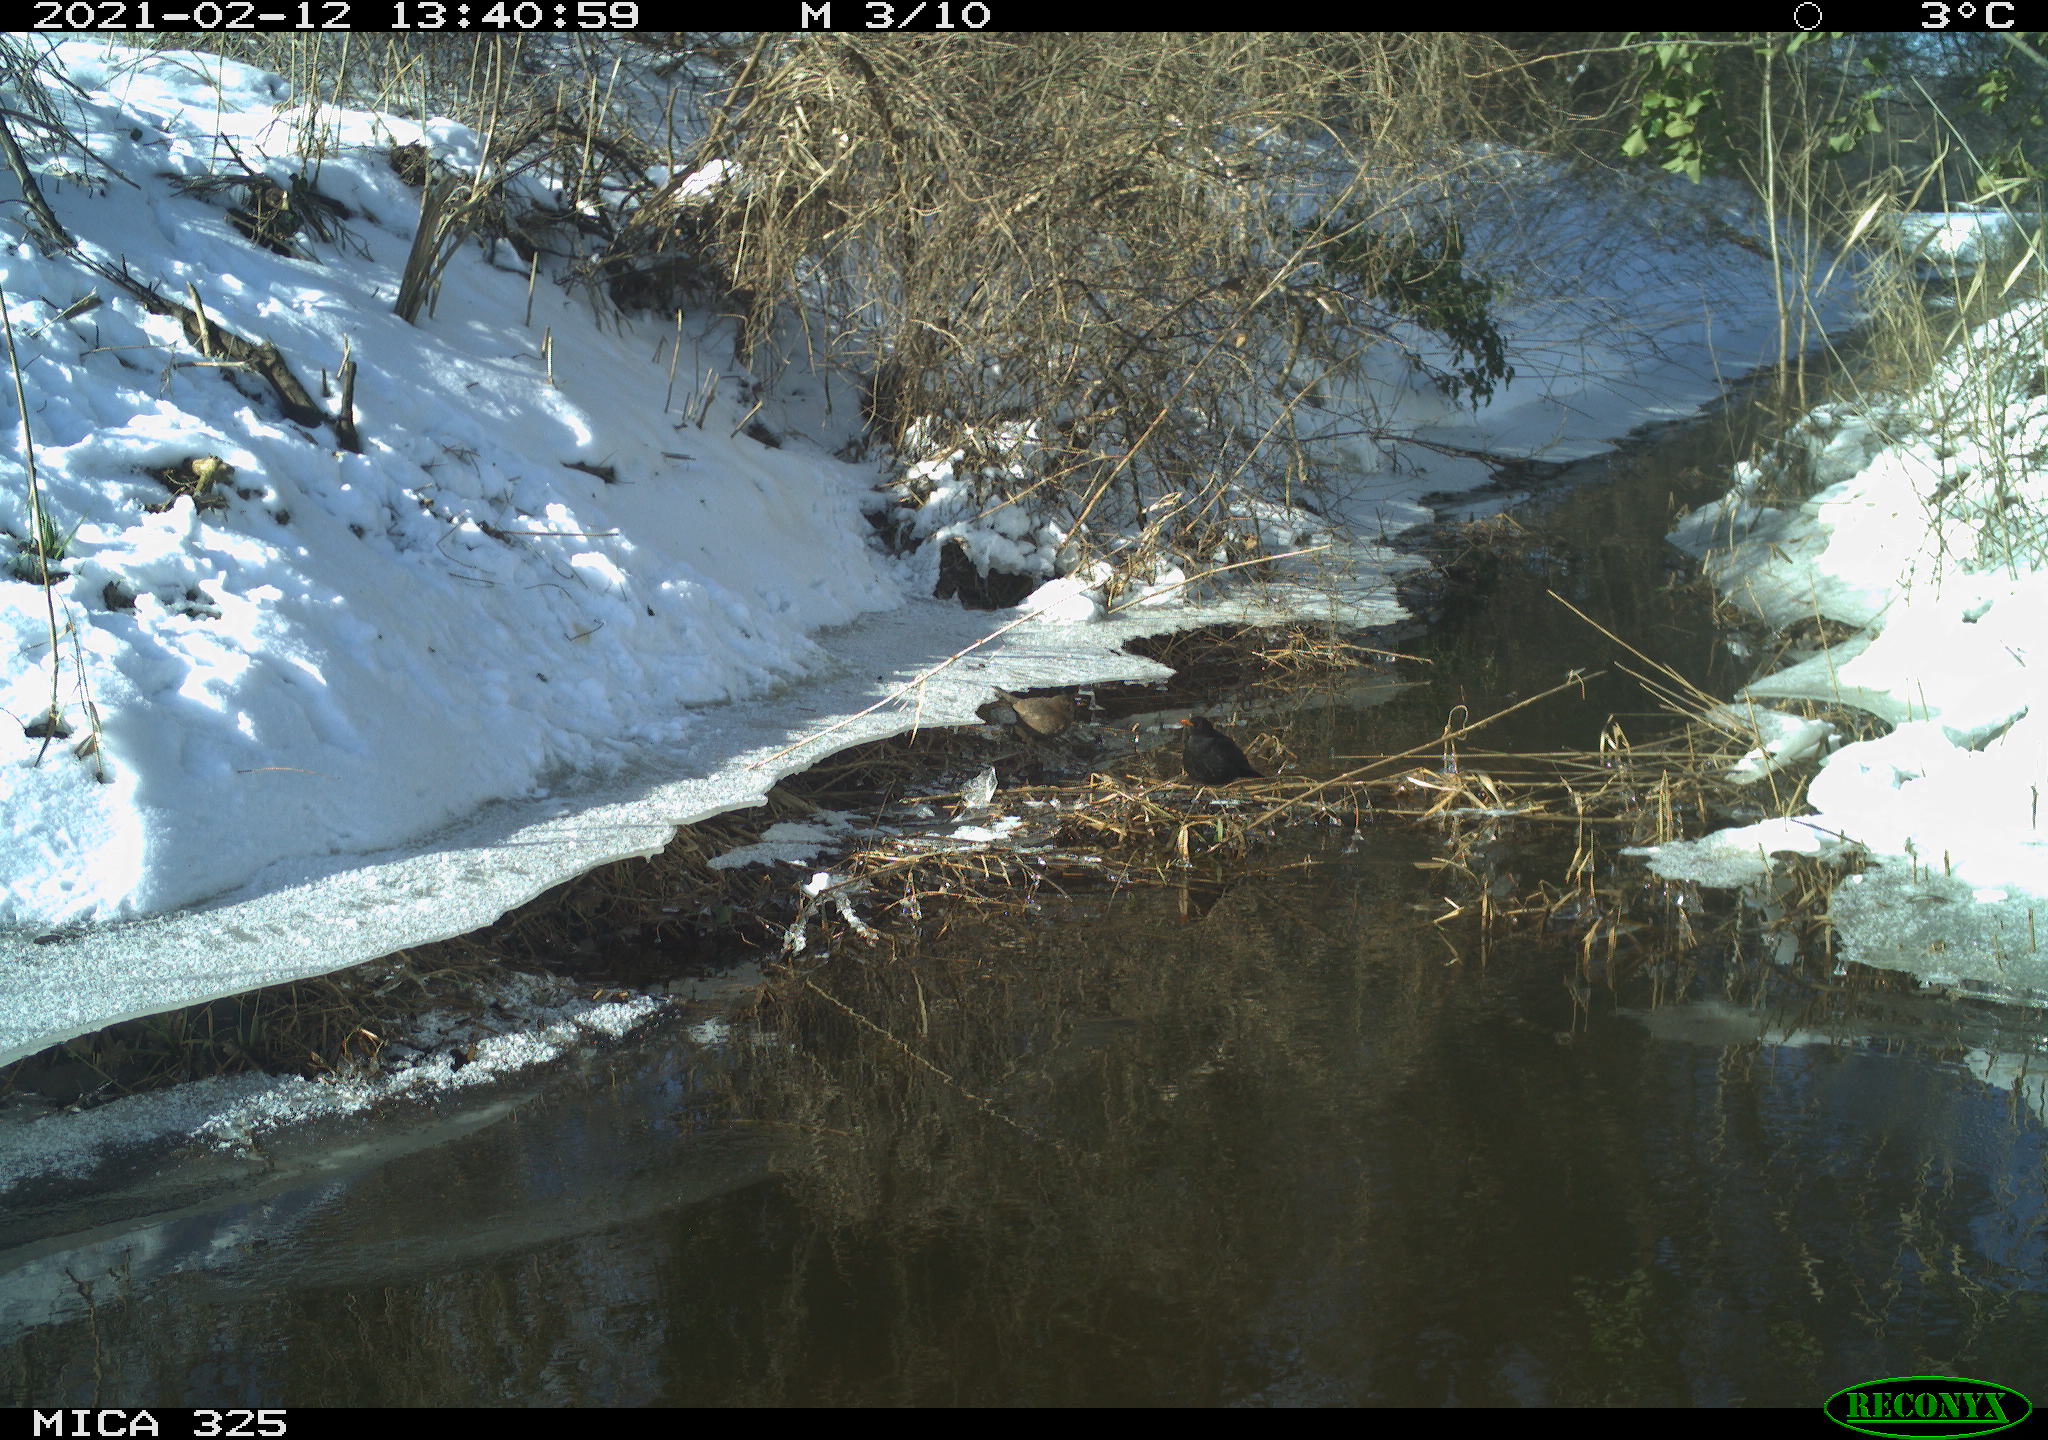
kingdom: Animalia
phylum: Chordata
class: Aves
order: Passeriformes
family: Turdidae
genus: Turdus
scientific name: Turdus merula
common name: Common blackbird
